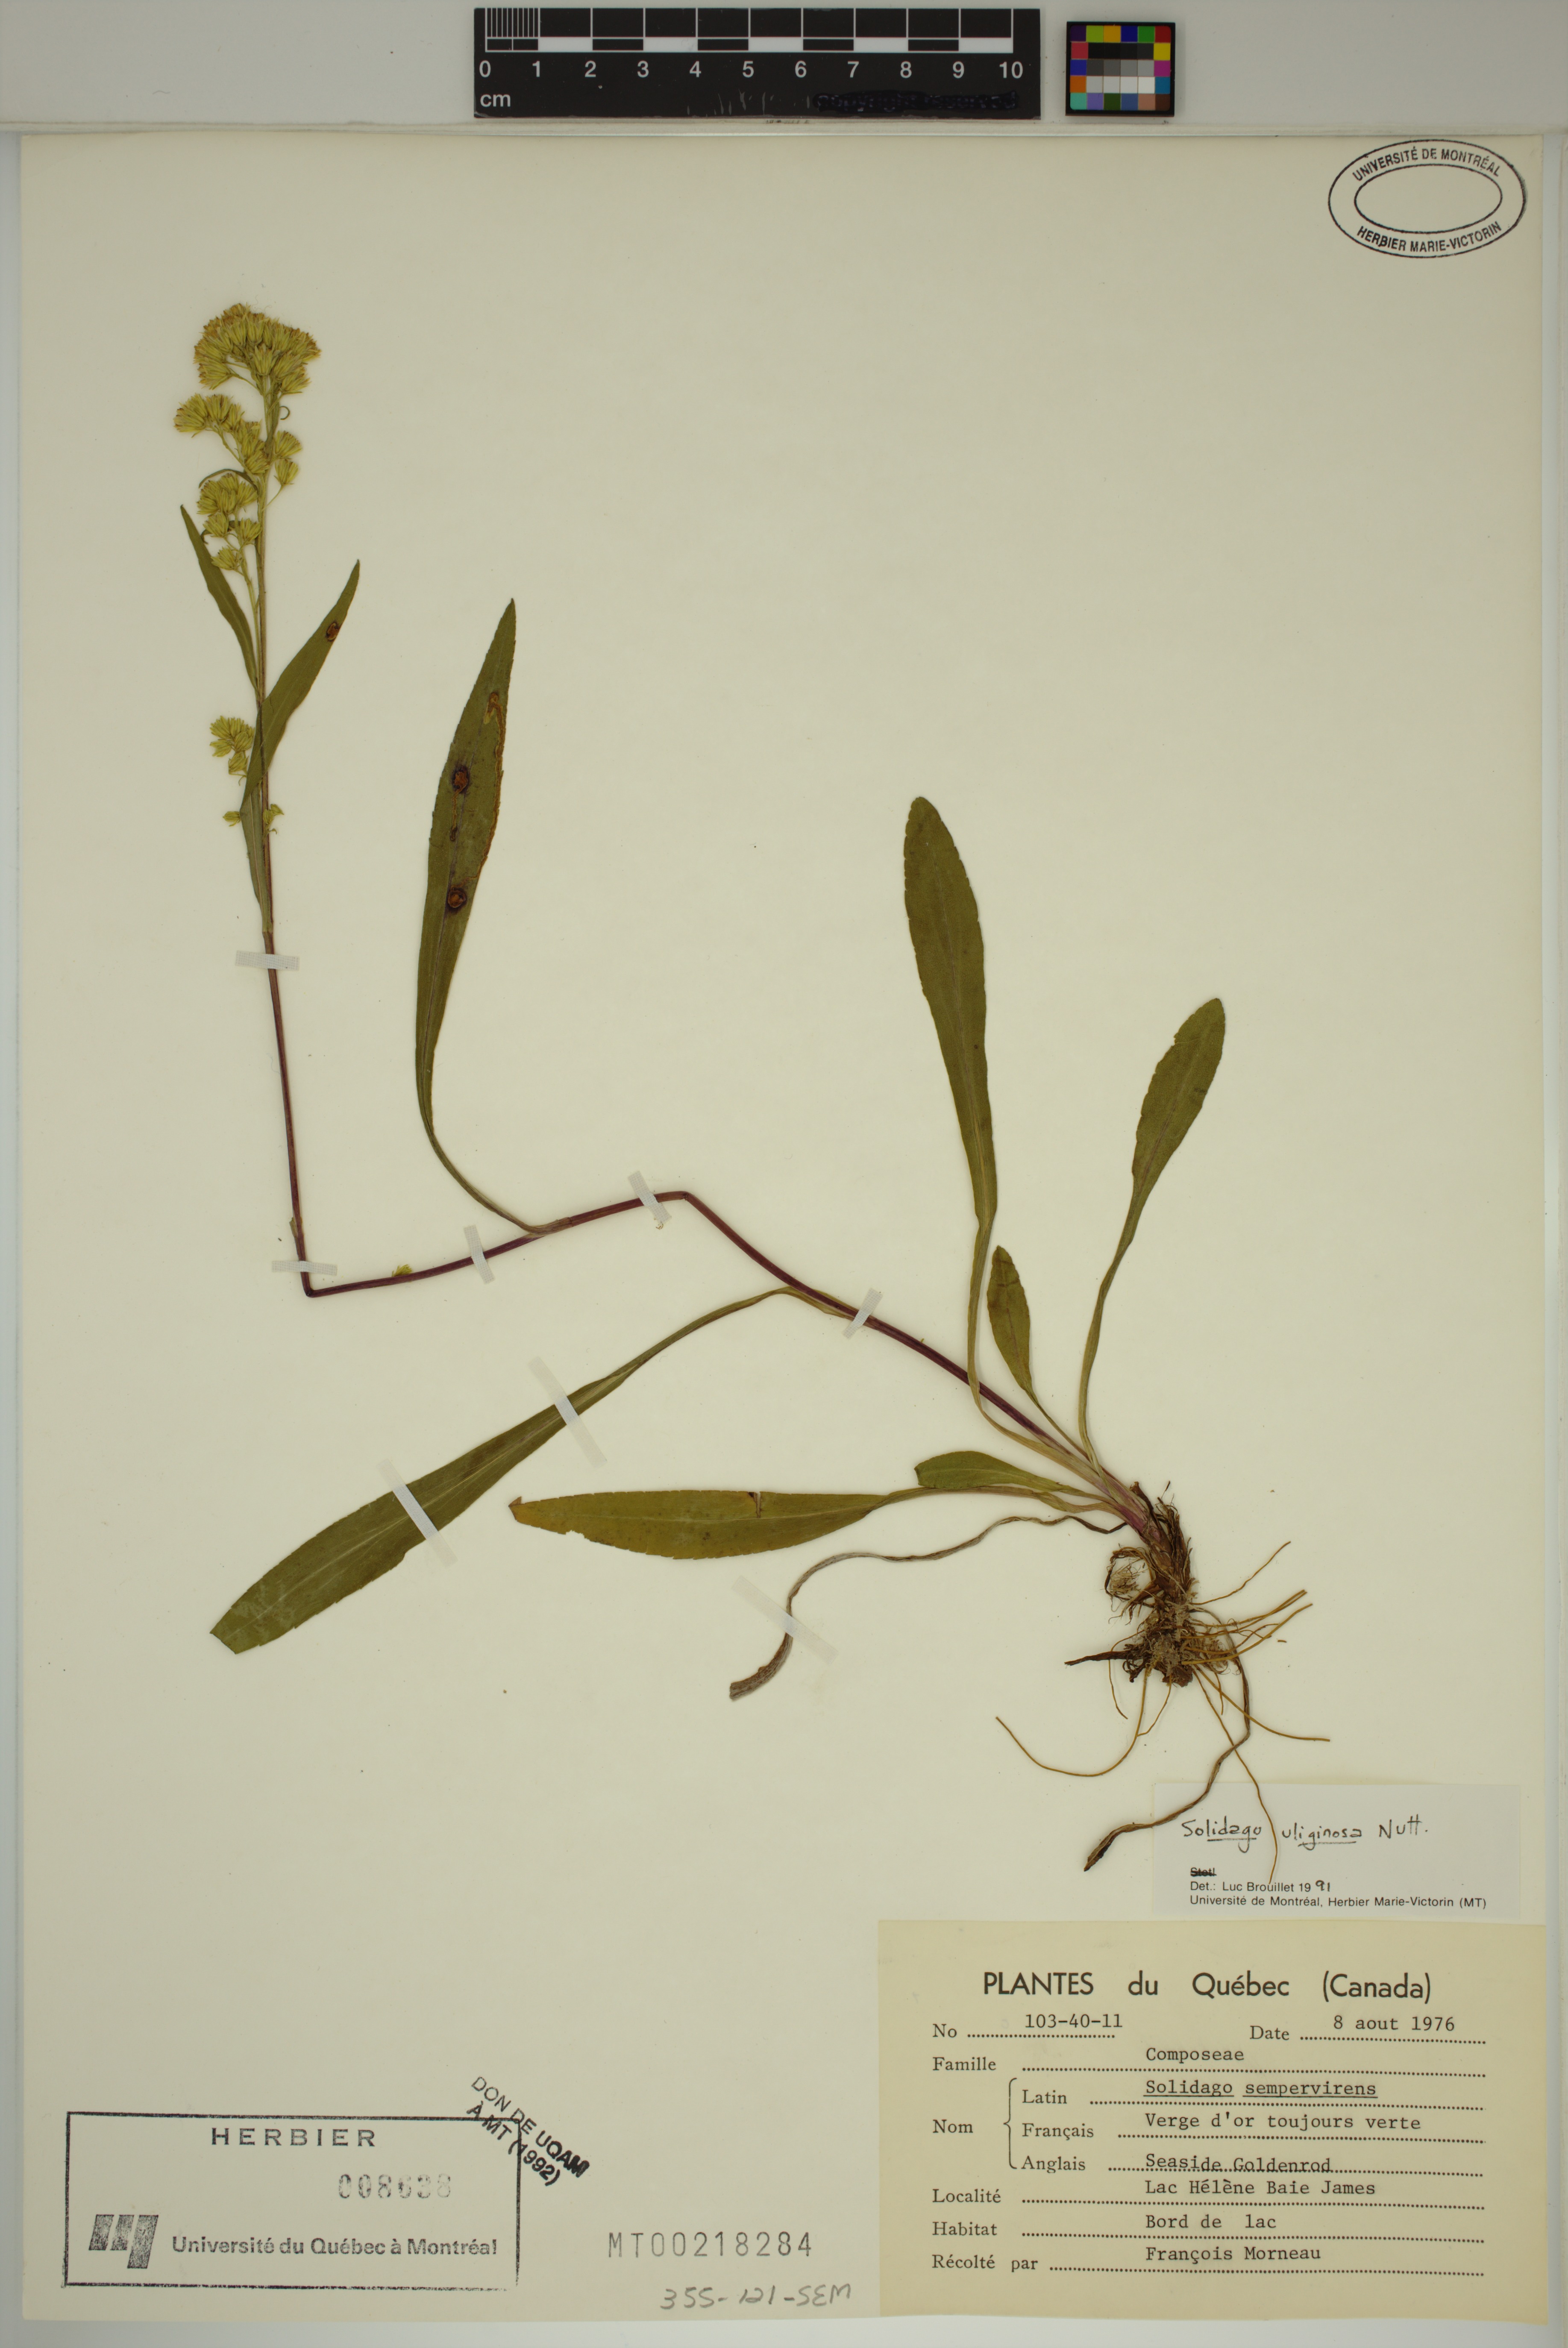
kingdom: Plantae
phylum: Tracheophyta
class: Magnoliopsida
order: Asterales
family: Asteraceae
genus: Solidago
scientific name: Solidago uliginosa
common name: Bog goldenrod
